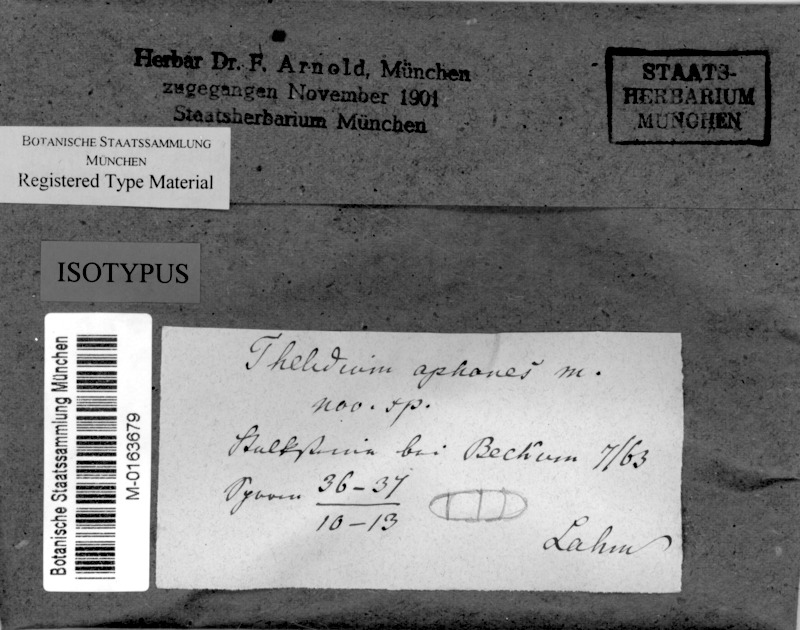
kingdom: Fungi
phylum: Ascomycota
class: Eurotiomycetes
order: Verrucariales
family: Verrucariaceae
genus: Thelidium
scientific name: Thelidium aphanes
